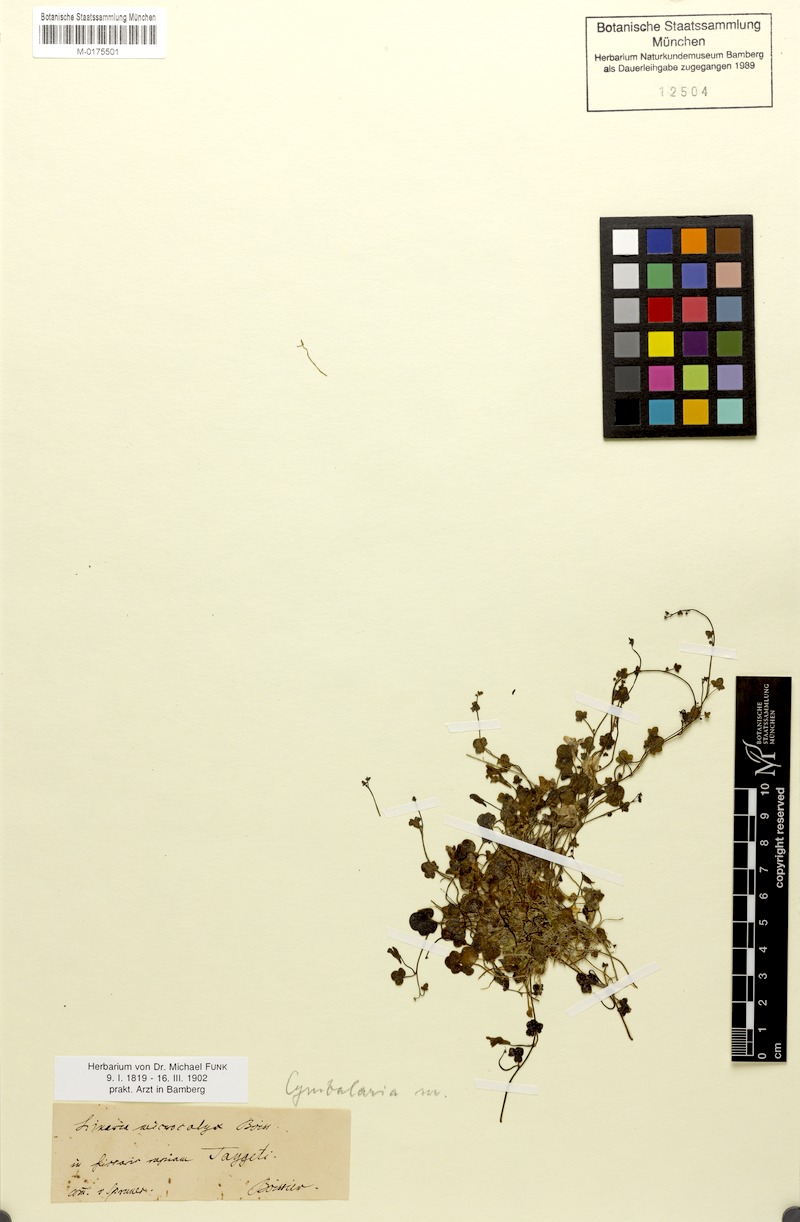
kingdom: Plantae
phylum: Tracheophyta
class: Magnoliopsida
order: Lamiales
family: Plantaginaceae
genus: Cymbalaria
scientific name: Cymbalaria microcalyx
